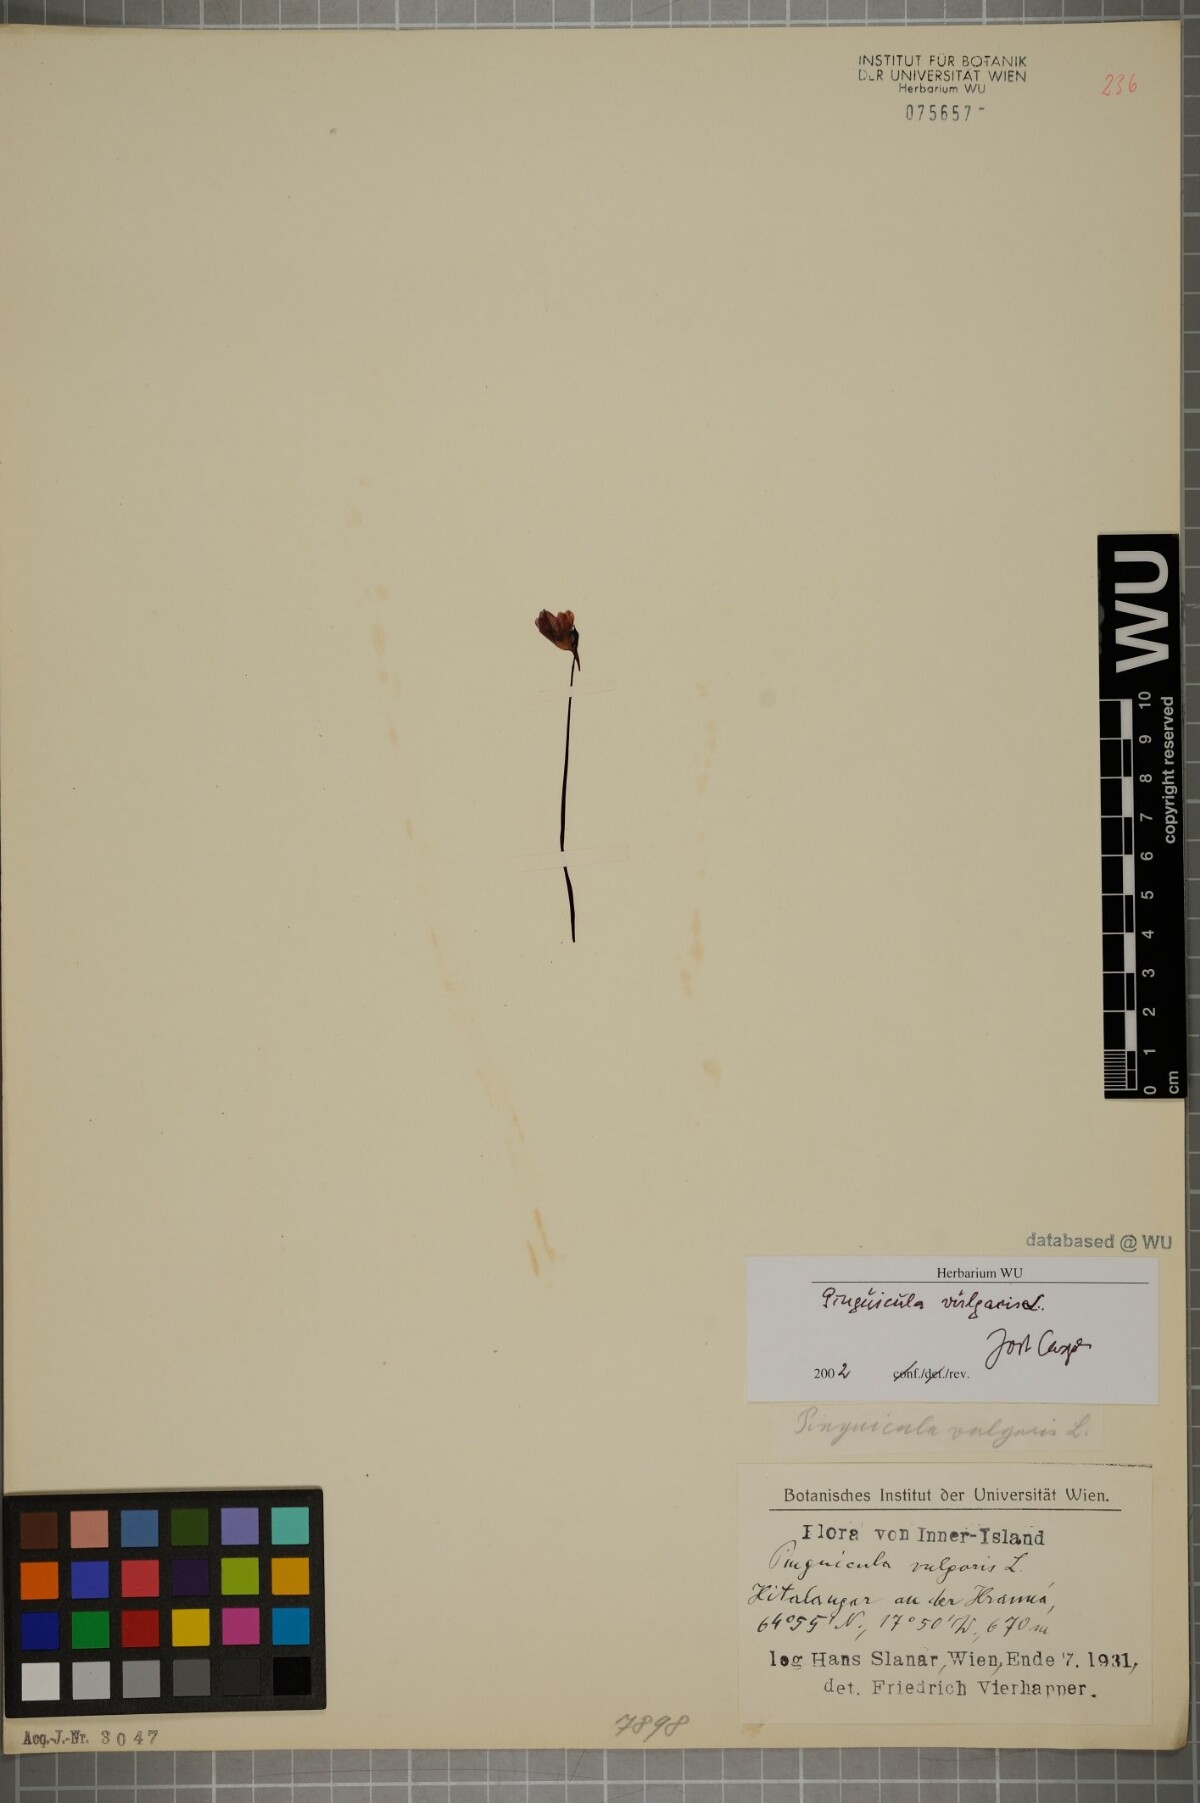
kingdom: Plantae
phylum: Tracheophyta
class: Magnoliopsida
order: Lamiales
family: Lentibulariaceae
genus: Pinguicula
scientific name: Pinguicula vulgaris
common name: Common butterwort
